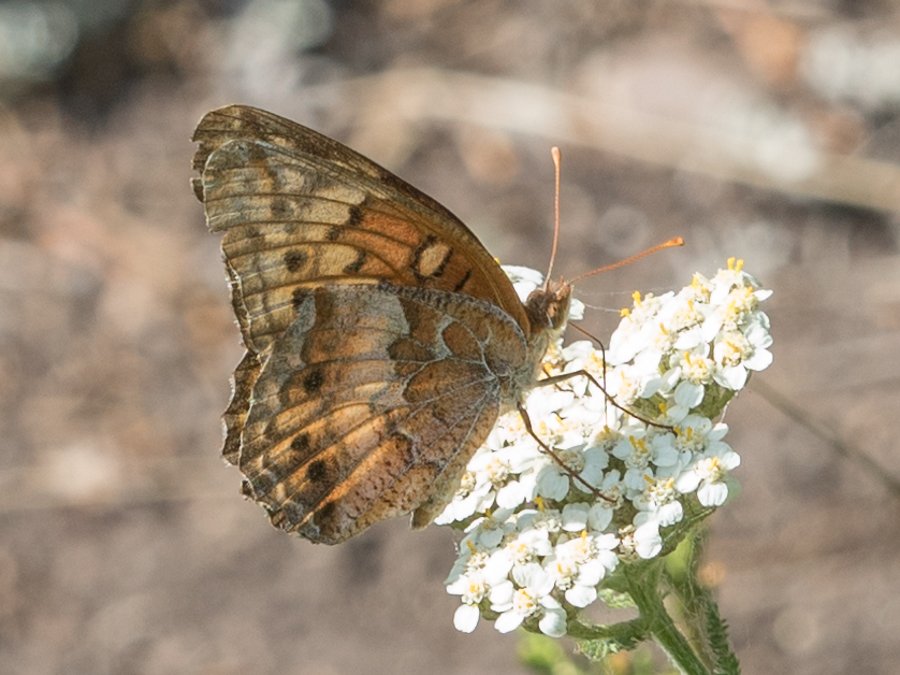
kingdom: Animalia
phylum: Arthropoda
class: Insecta
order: Lepidoptera
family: Nymphalidae
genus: Euptoieta
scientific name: Euptoieta claudia
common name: Variegated Fritillary
